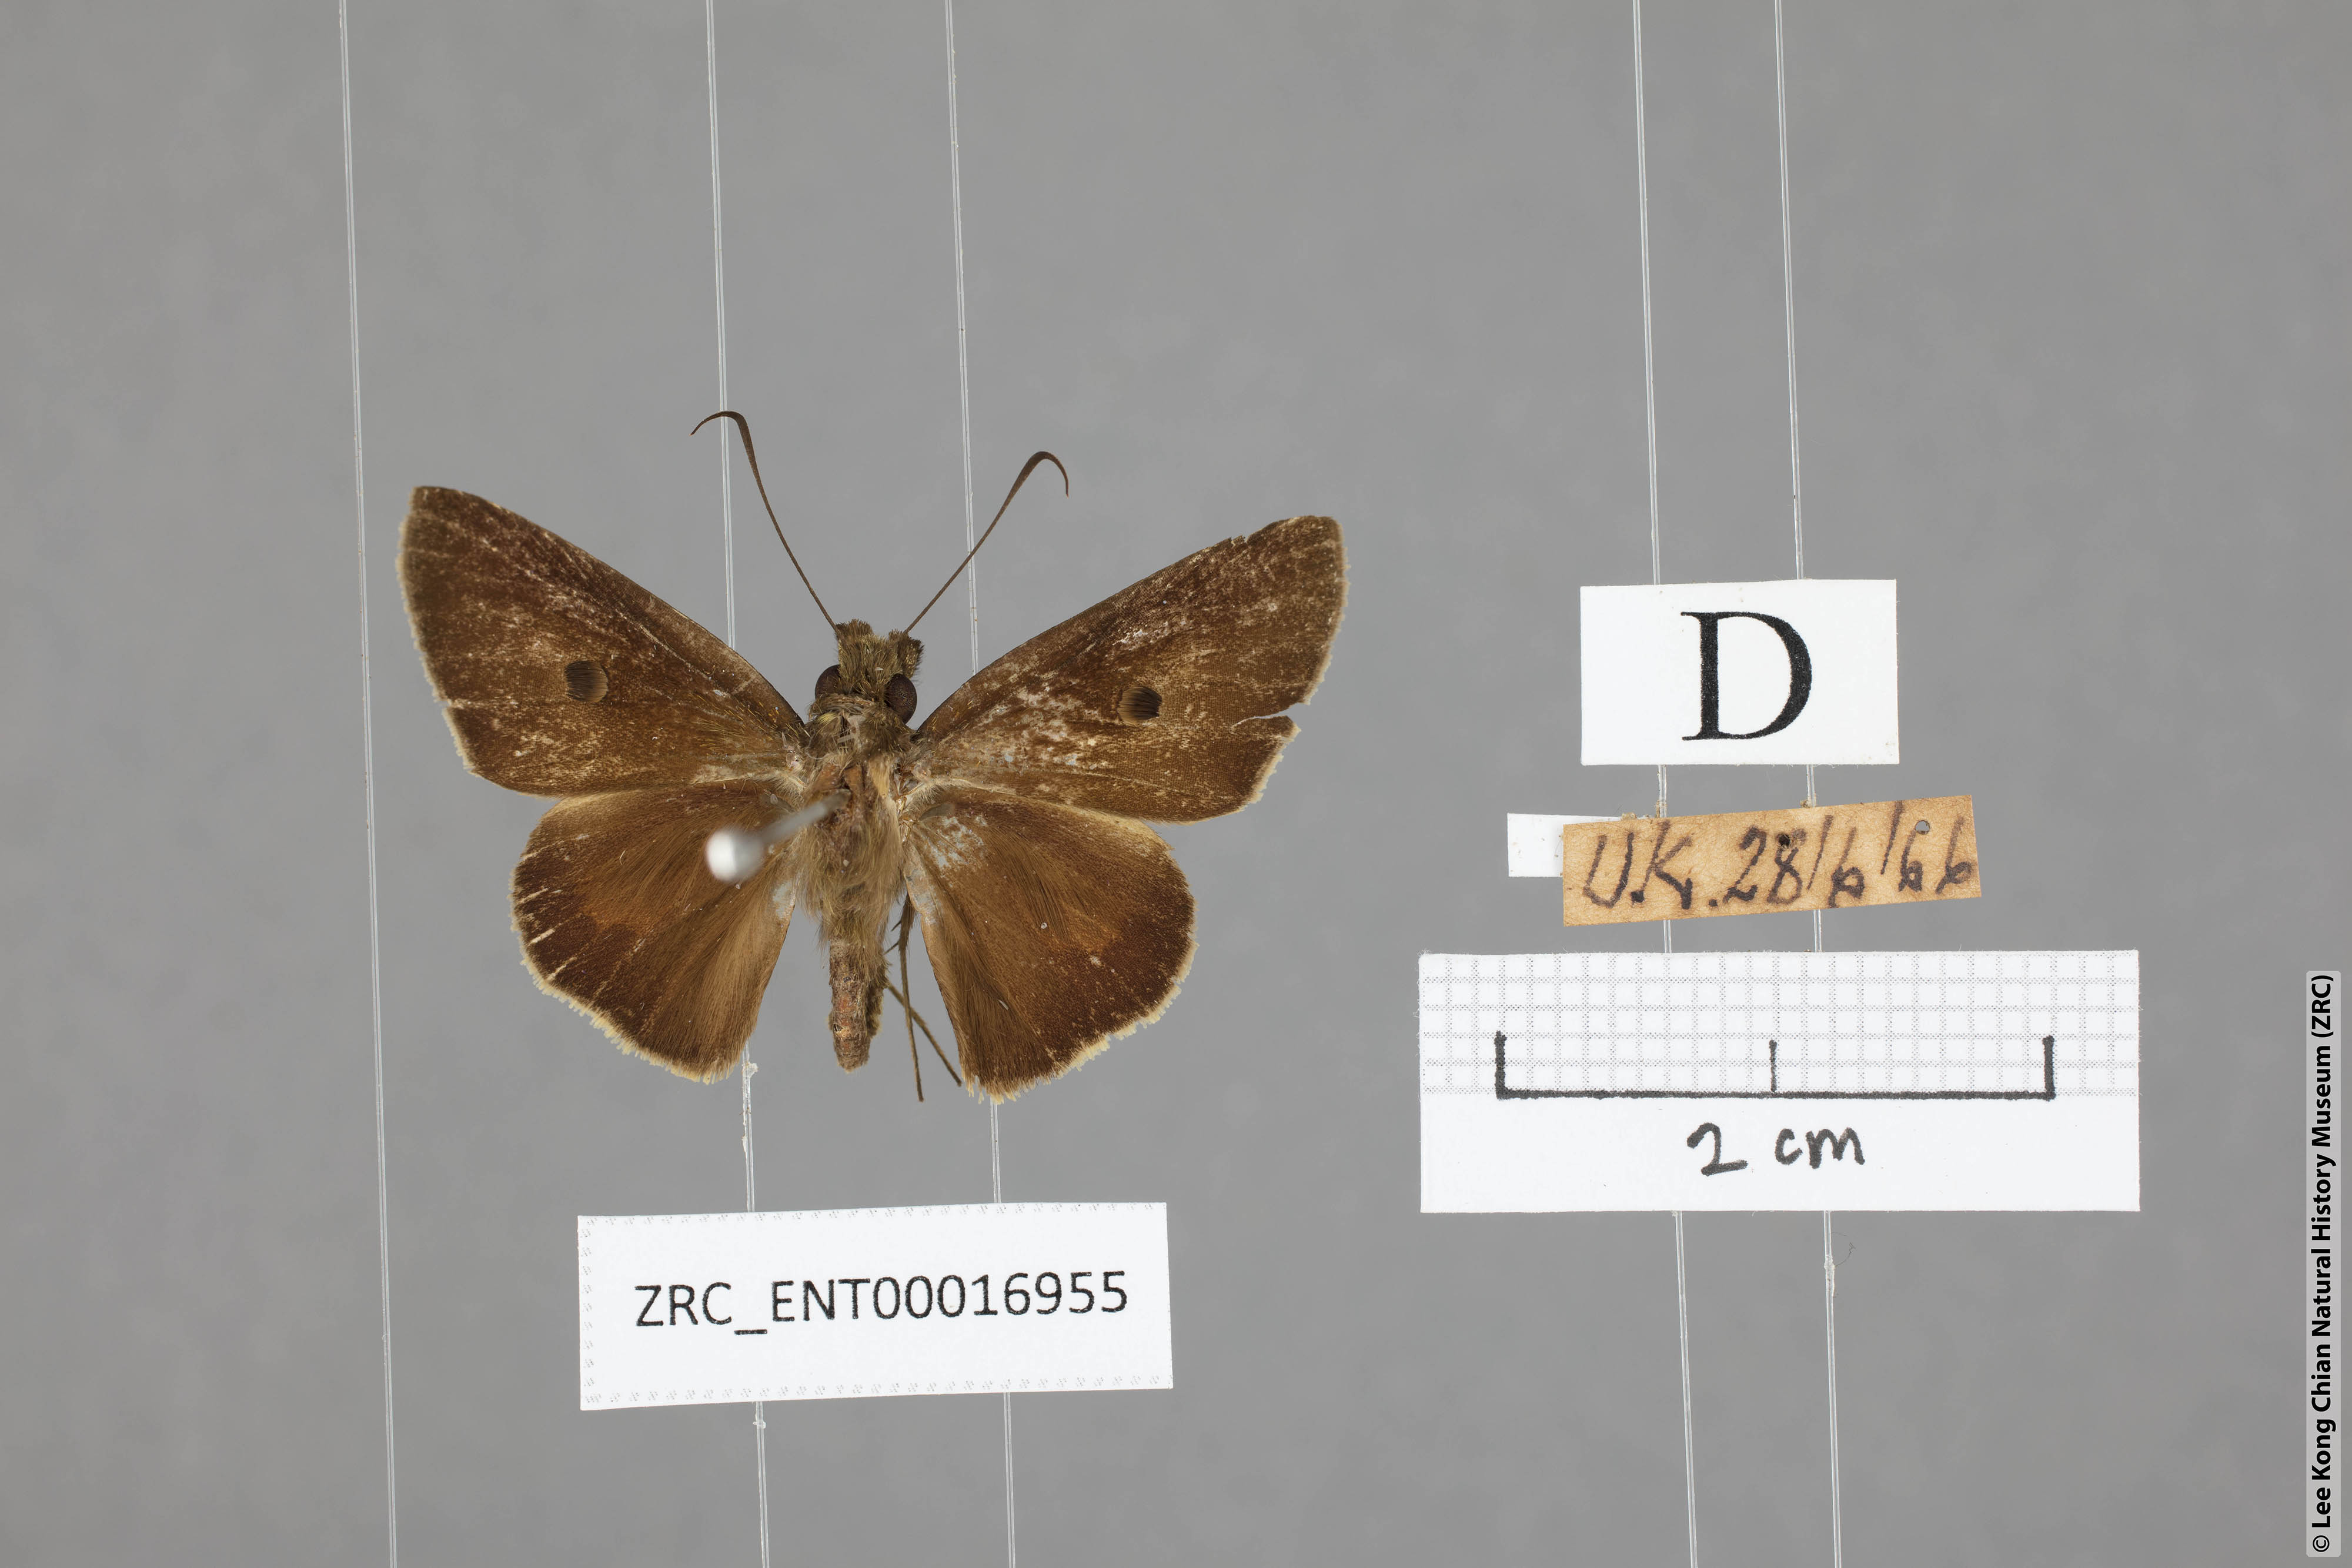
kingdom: Animalia
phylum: Arthropoda
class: Insecta
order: Lepidoptera
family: Hesperiidae
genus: Ge
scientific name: Ge
